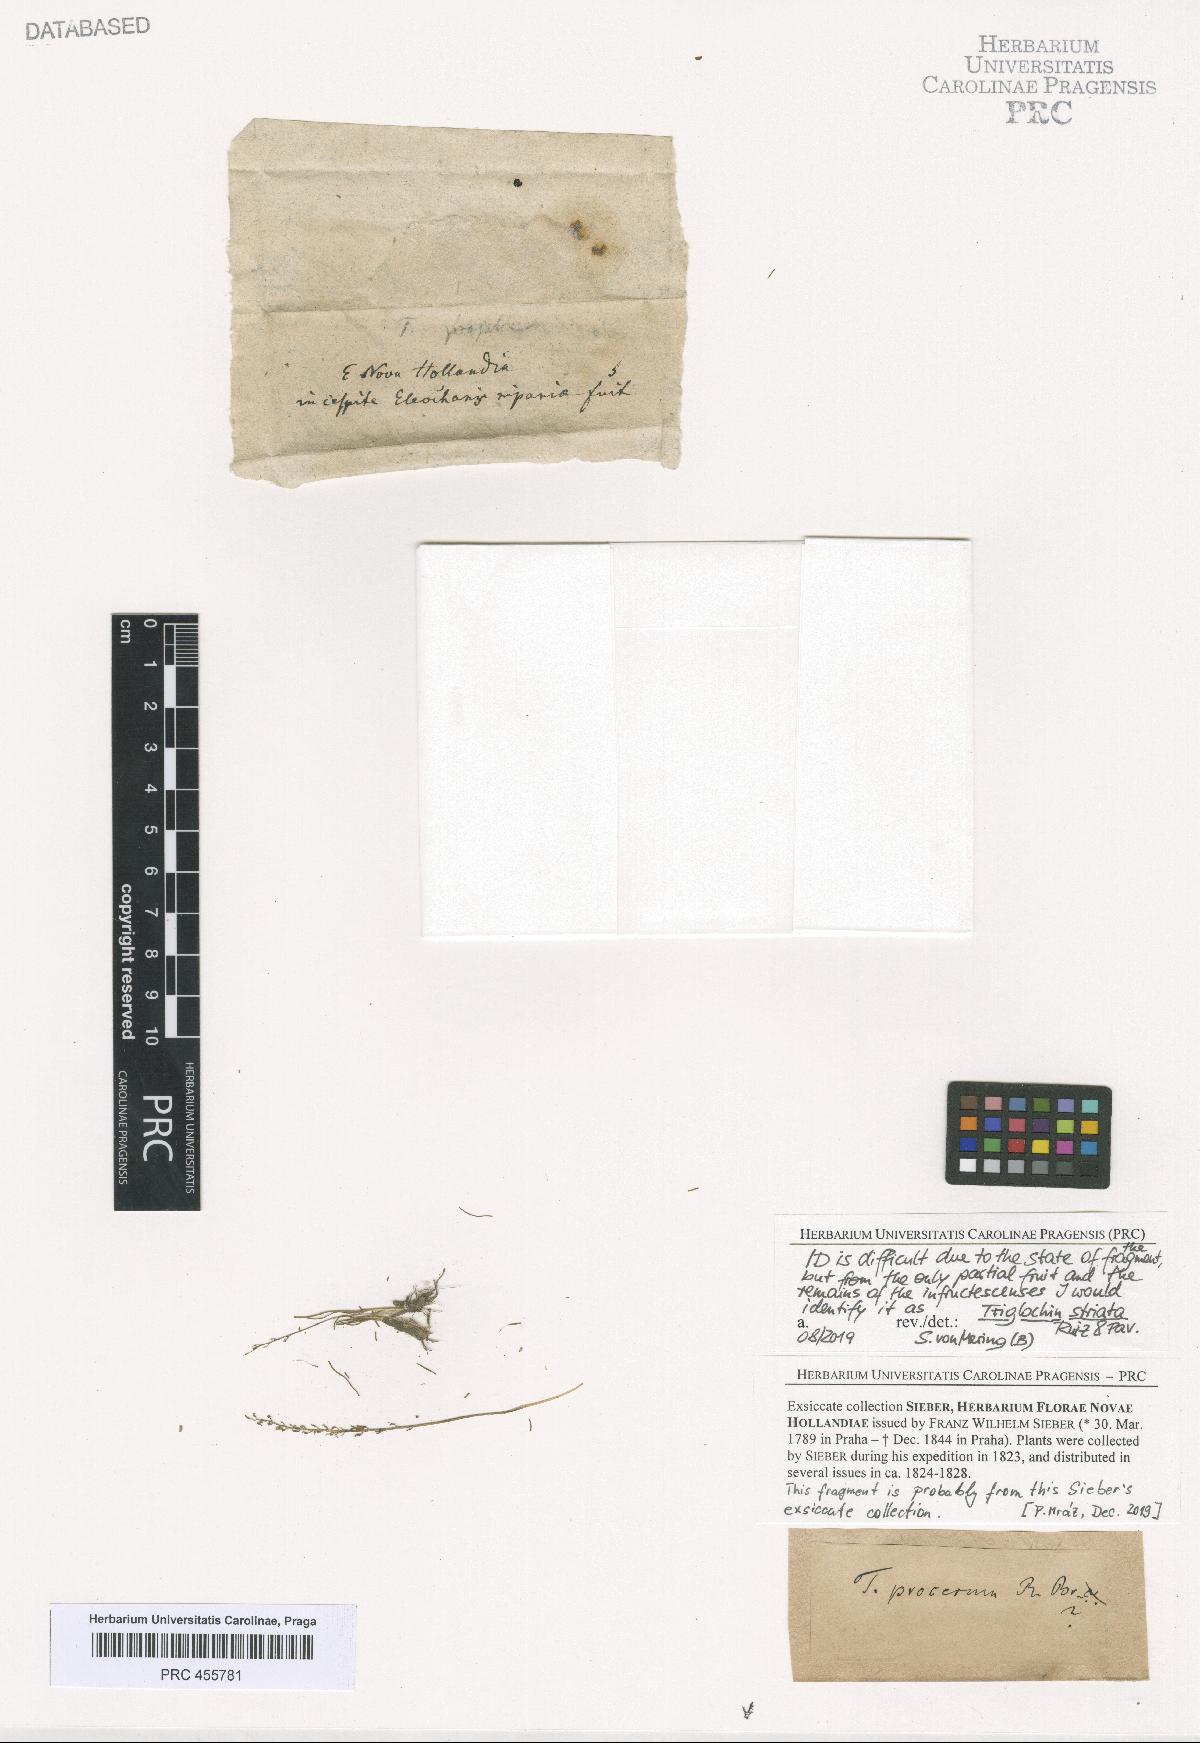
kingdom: Plantae
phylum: Tracheophyta
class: Liliopsida
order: Alismatales
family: Juncaginaceae
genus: Triglochin
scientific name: Triglochin striata
